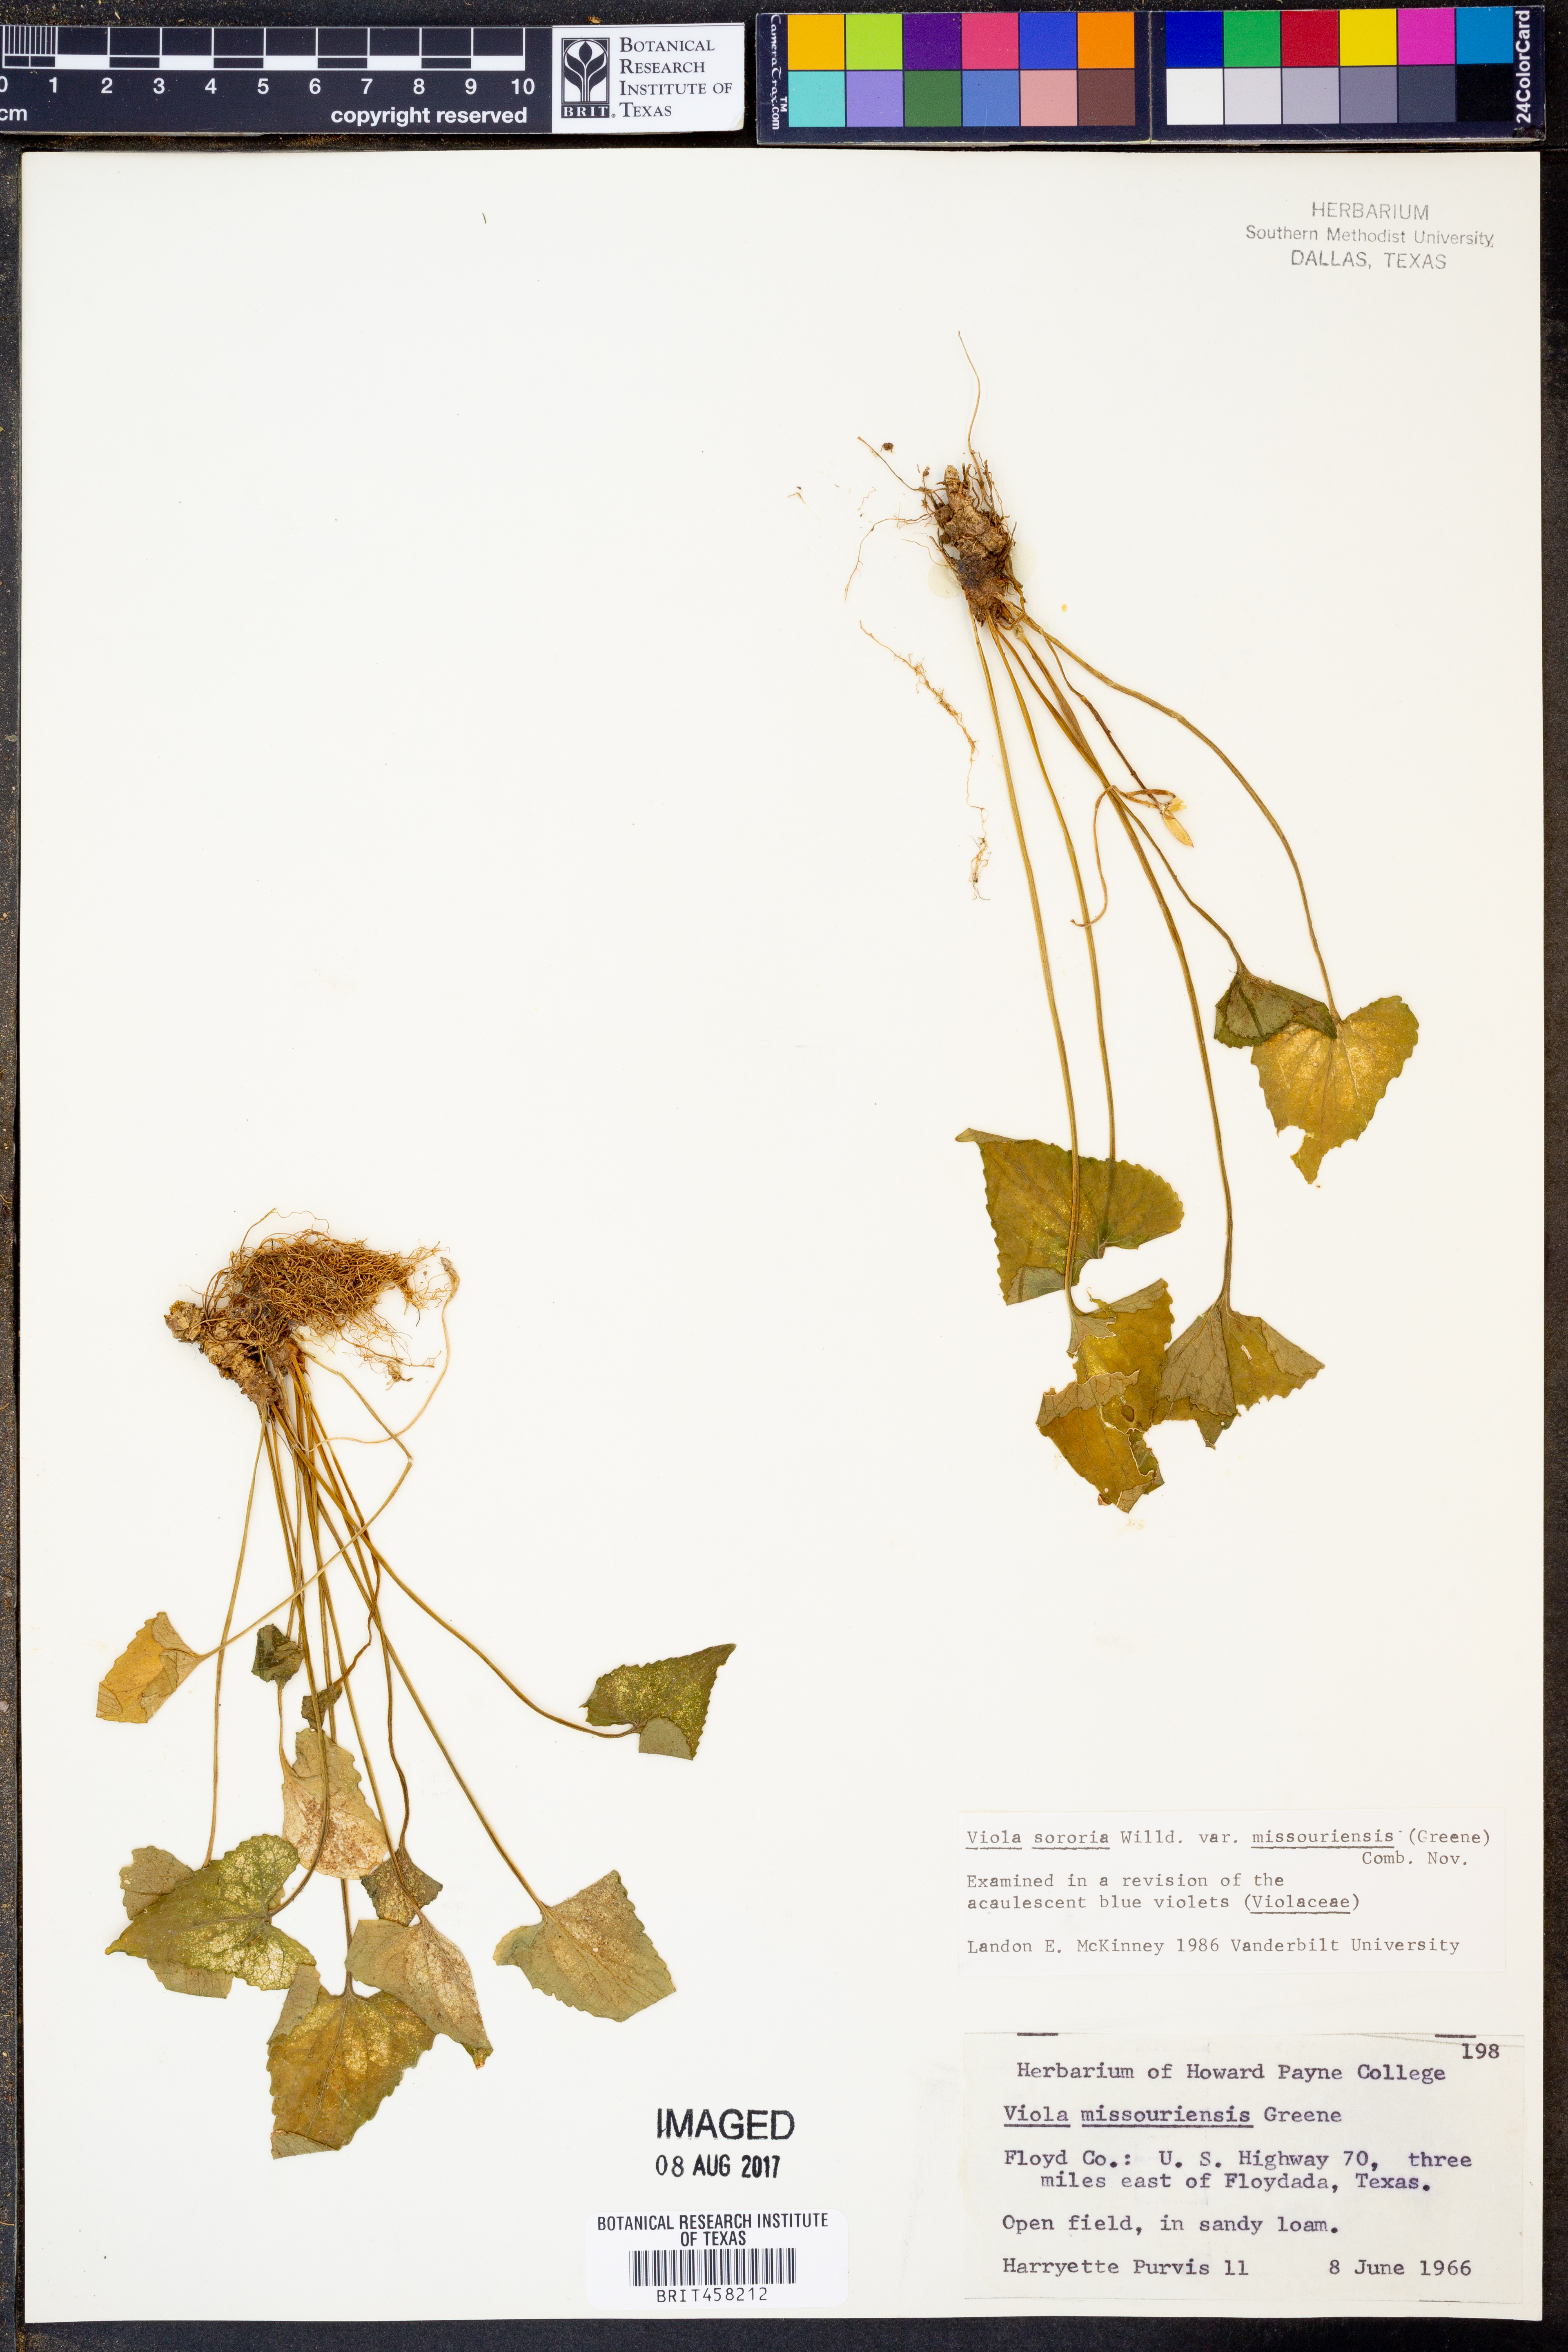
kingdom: Plantae
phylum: Tracheophyta
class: Magnoliopsida
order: Malpighiales
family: Violaceae
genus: Viola
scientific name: Viola missouriensis
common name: Missouri violet
